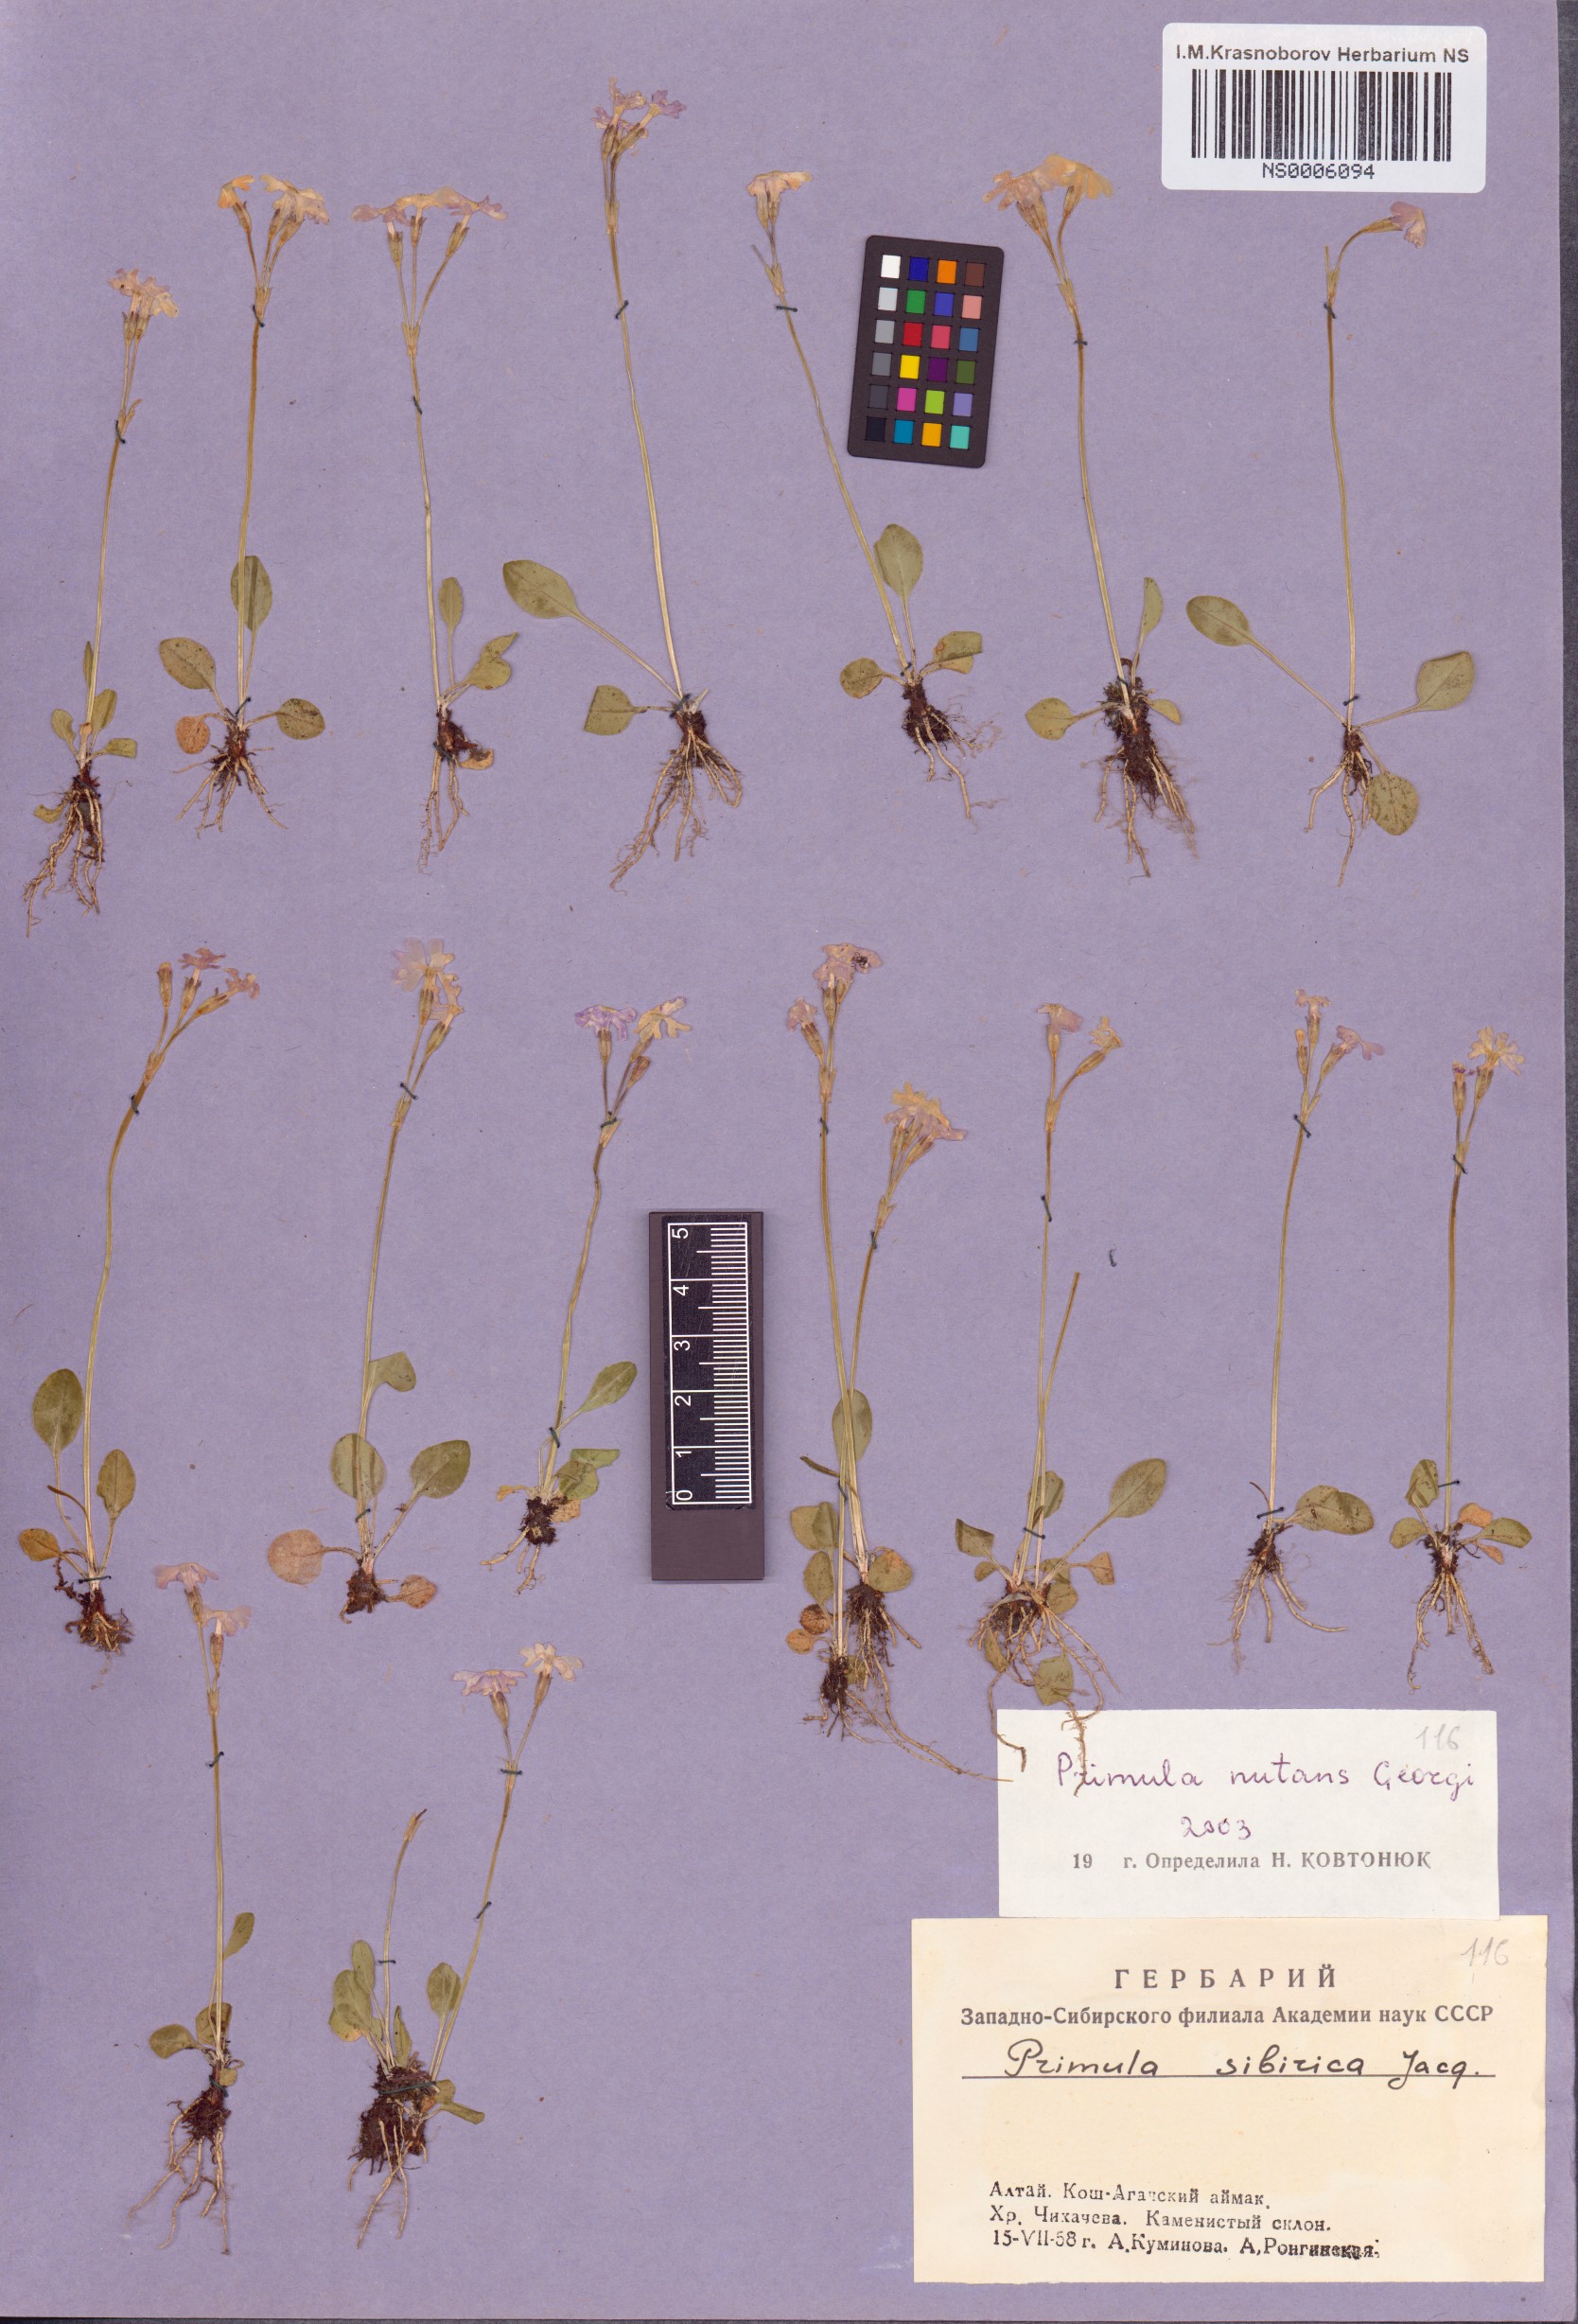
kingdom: Plantae
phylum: Tracheophyta
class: Magnoliopsida
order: Ericales
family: Primulaceae
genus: Primula
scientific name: Primula nutans
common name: Siberian primrose
